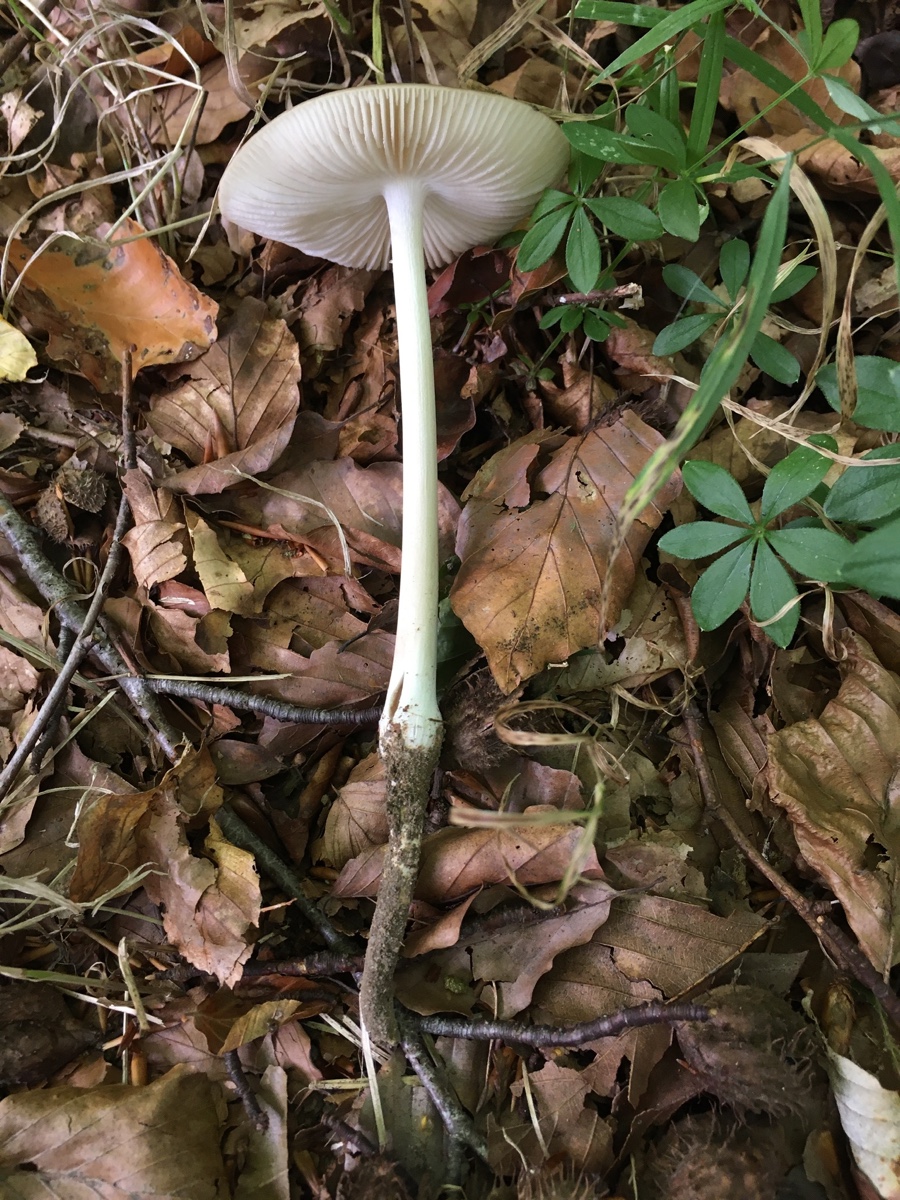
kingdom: Fungi
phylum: Basidiomycota
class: Agaricomycetes
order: Agaricales
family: Physalacriaceae
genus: Hymenopellis
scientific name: Hymenopellis radicata
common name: almindelig pælerodshat
